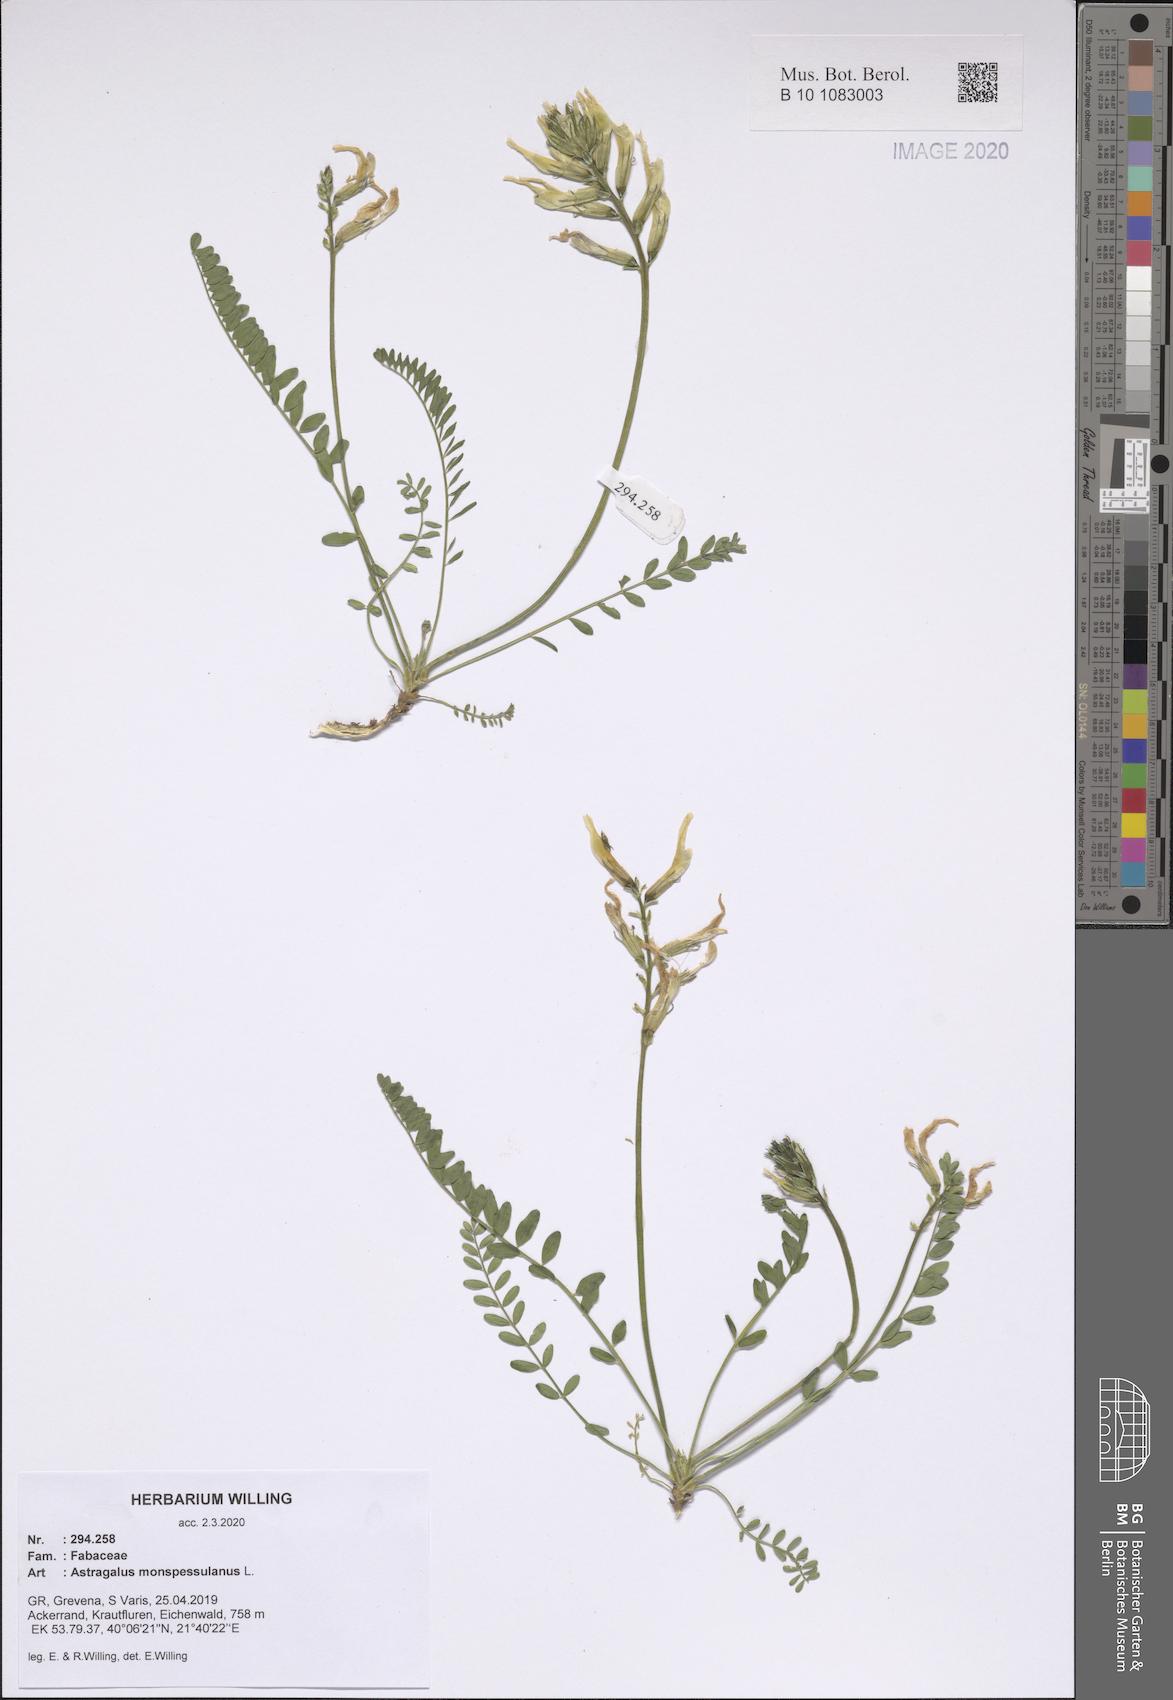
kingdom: Plantae
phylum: Tracheophyta
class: Magnoliopsida
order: Fabales
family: Fabaceae
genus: Astragalus
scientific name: Astragalus monspessulanus
